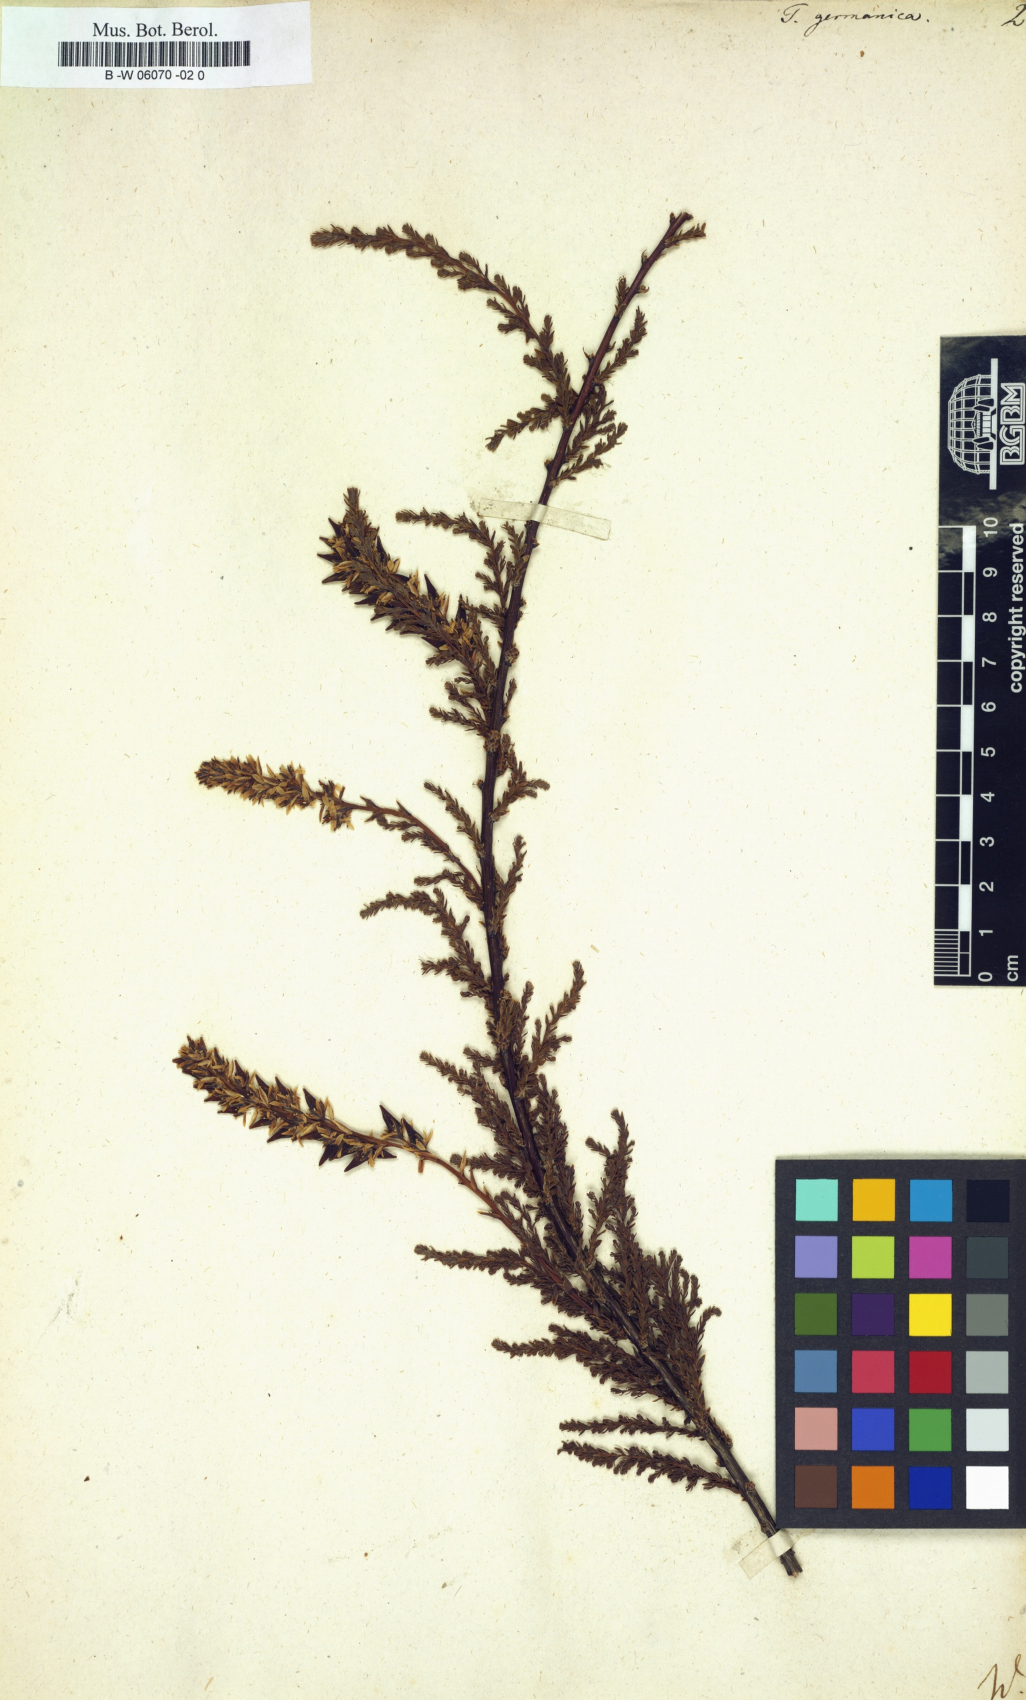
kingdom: Plantae
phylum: Tracheophyta
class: Magnoliopsida
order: Caryophyllales
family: Tamaricaceae
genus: Tamarix
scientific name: Tamarix germanica
